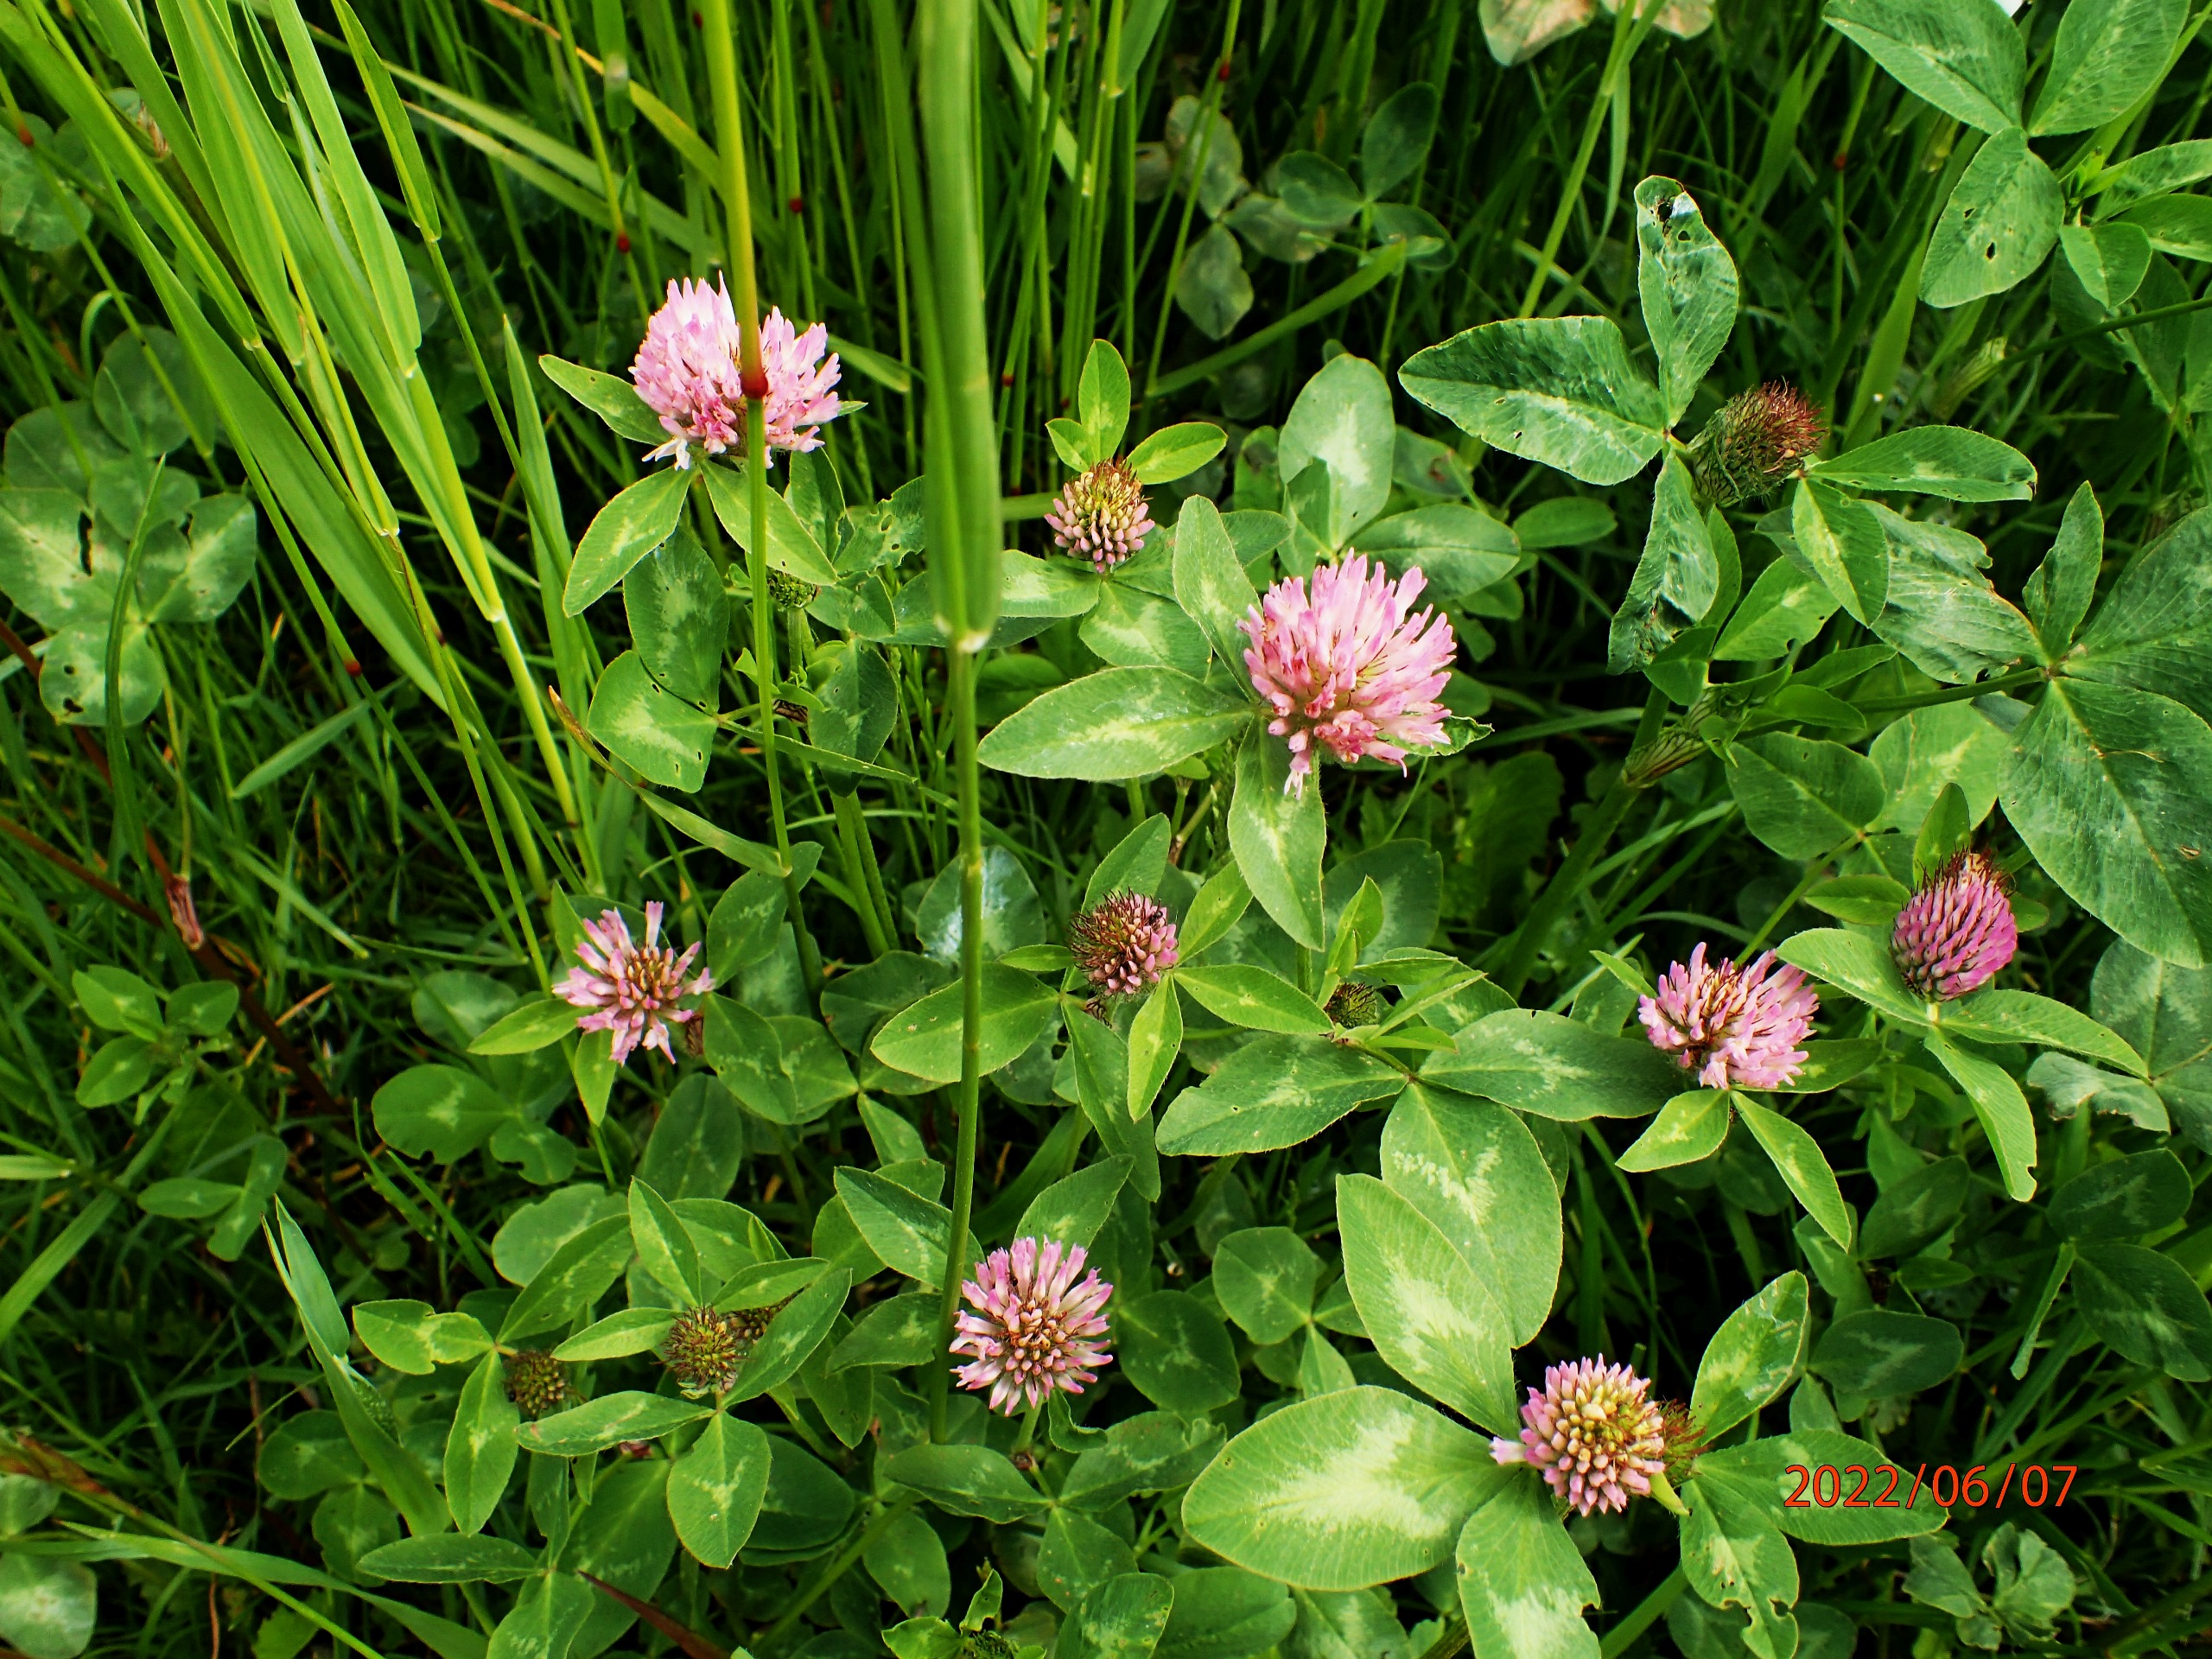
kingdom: Plantae
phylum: Tracheophyta
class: Magnoliopsida
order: Fabales
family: Fabaceae
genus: Trifolium
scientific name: Trifolium pratense
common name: Rød-kløver
